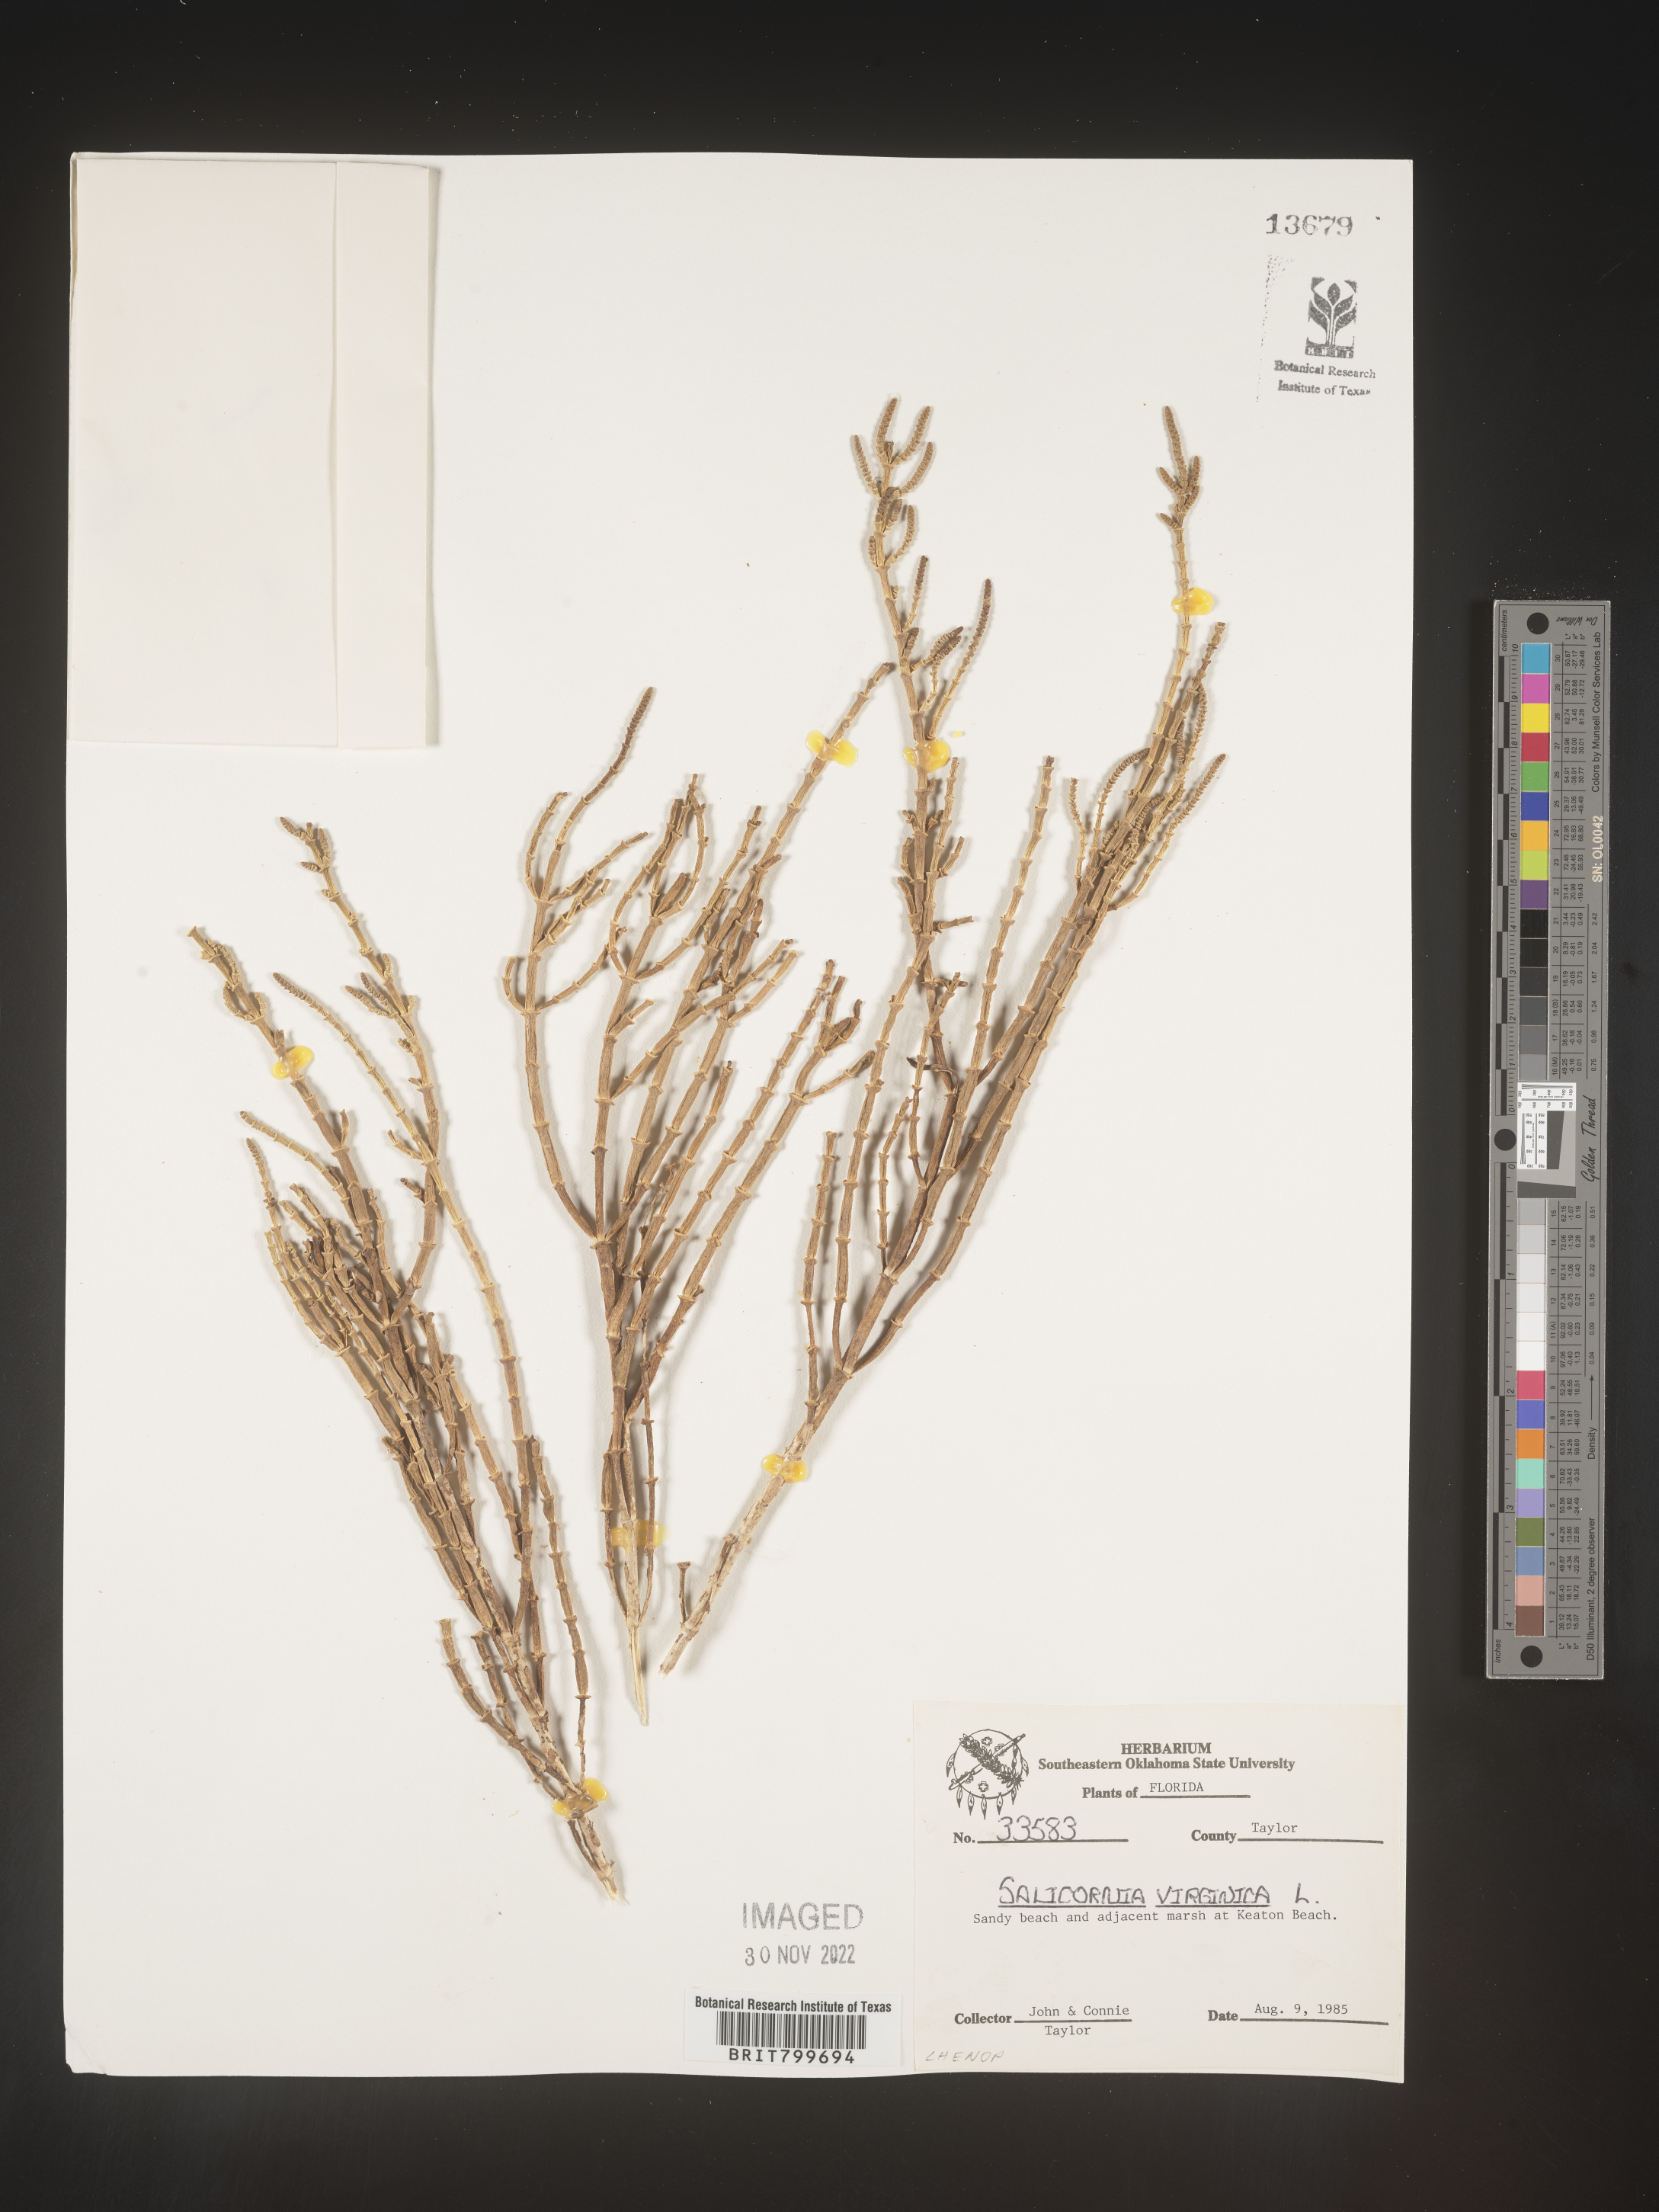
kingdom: Plantae
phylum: Tracheophyta
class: Magnoliopsida
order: Caryophyllales
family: Amaranthaceae
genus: Salicornia
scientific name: Salicornia virginica
